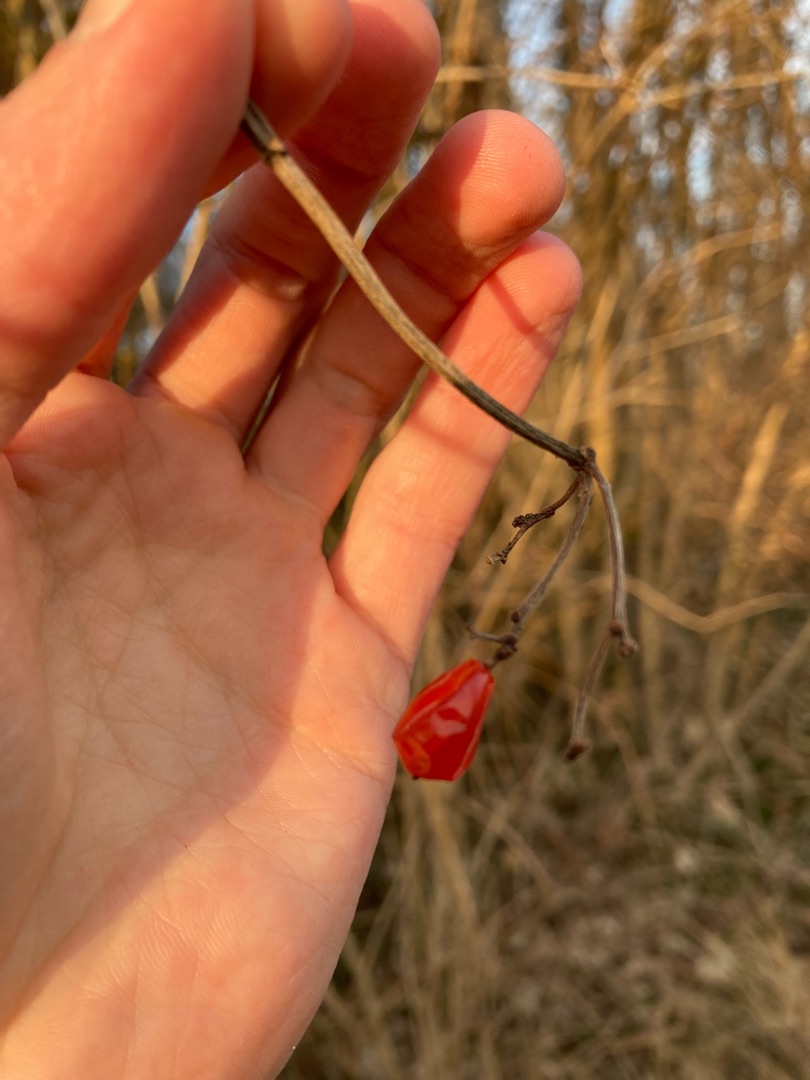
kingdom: Plantae
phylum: Tracheophyta
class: Magnoliopsida
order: Dipsacales
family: Viburnaceae
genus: Viburnum
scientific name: Viburnum opulus
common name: Kvalkved
